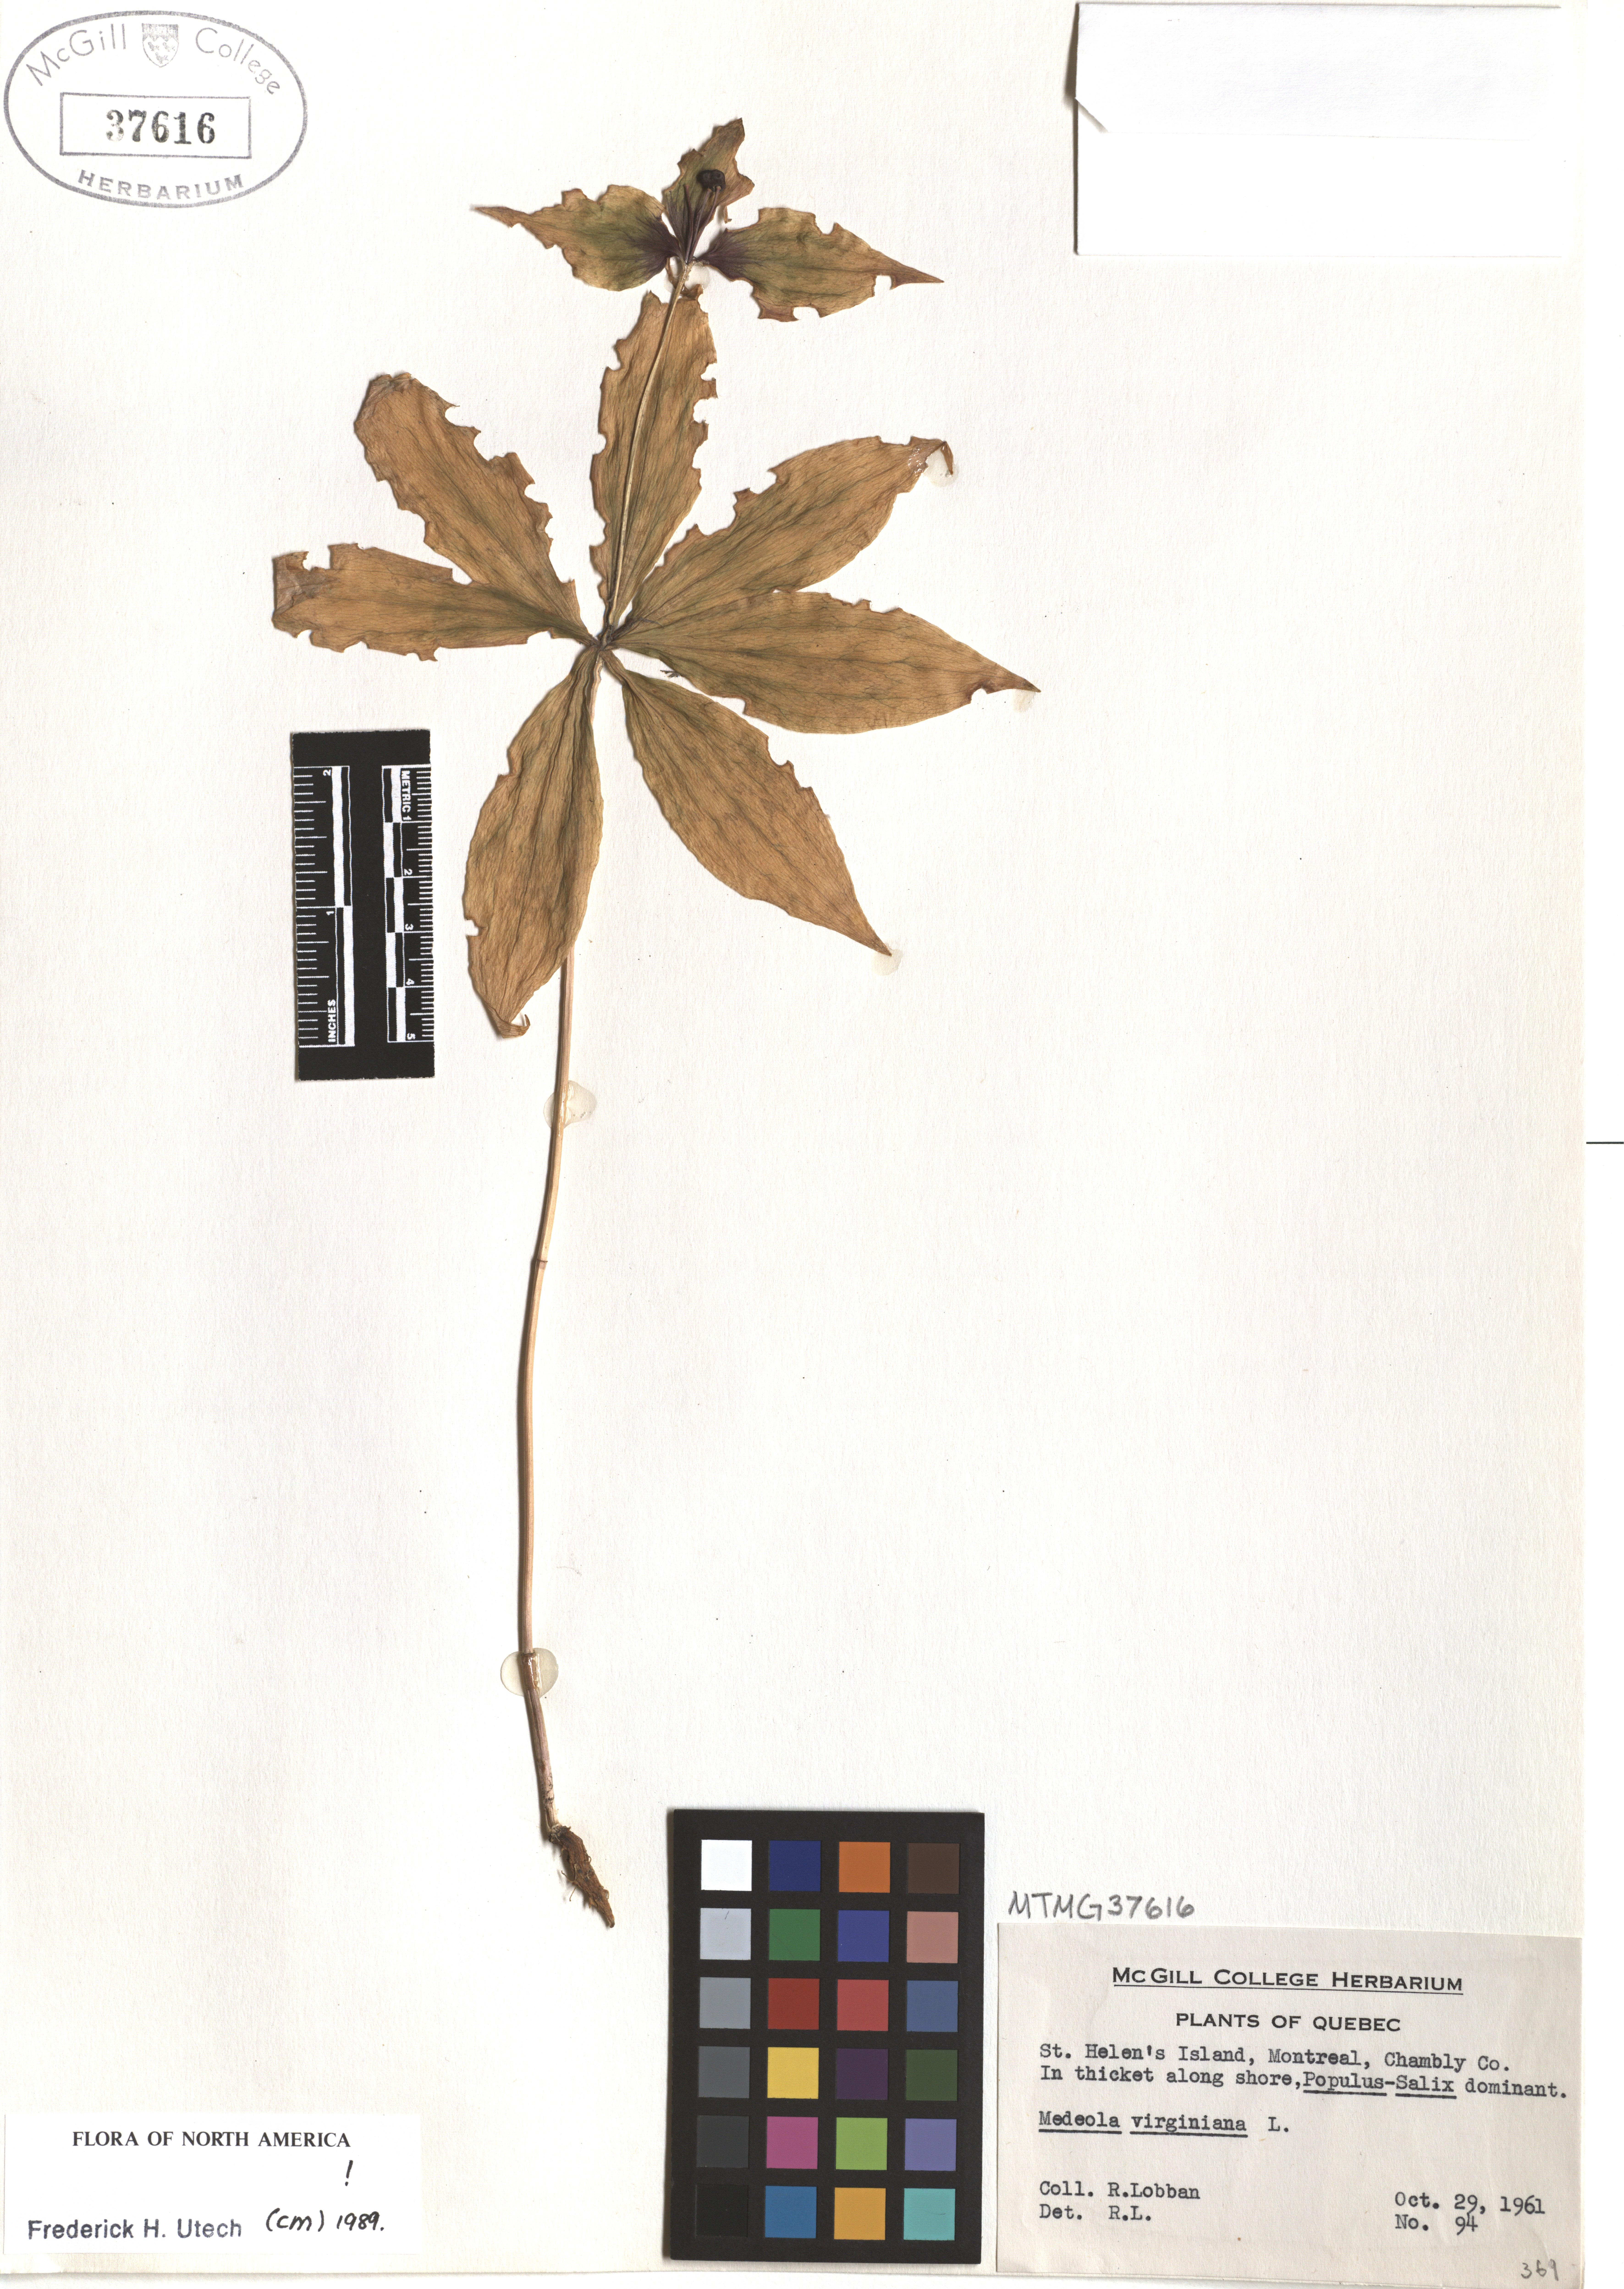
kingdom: Plantae
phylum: Tracheophyta
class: Liliopsida
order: Liliales
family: Liliaceae
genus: Medeola
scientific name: Medeola virginiana
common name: Indian cucumber-root
